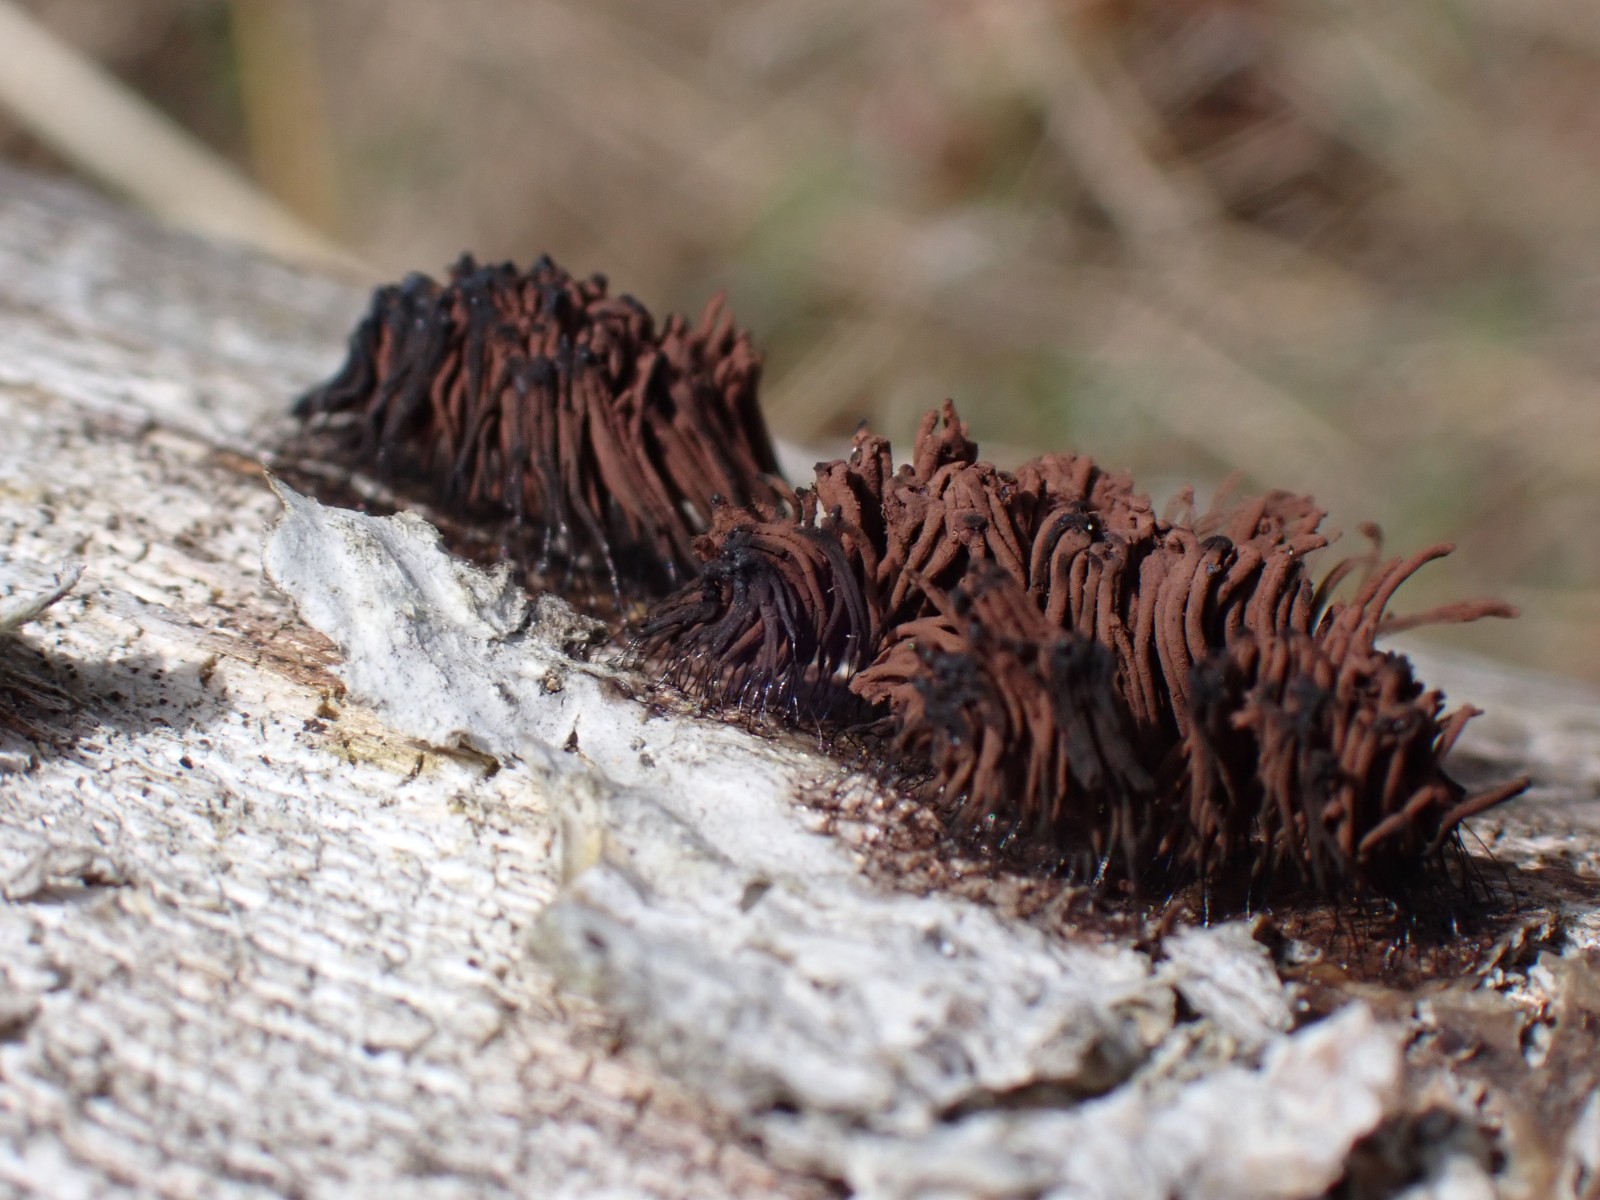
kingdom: Protozoa
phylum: Mycetozoa
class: Myxomycetes
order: Stemonitidales
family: Stemonitidaceae
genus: Stemonitis
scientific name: Stemonitis
